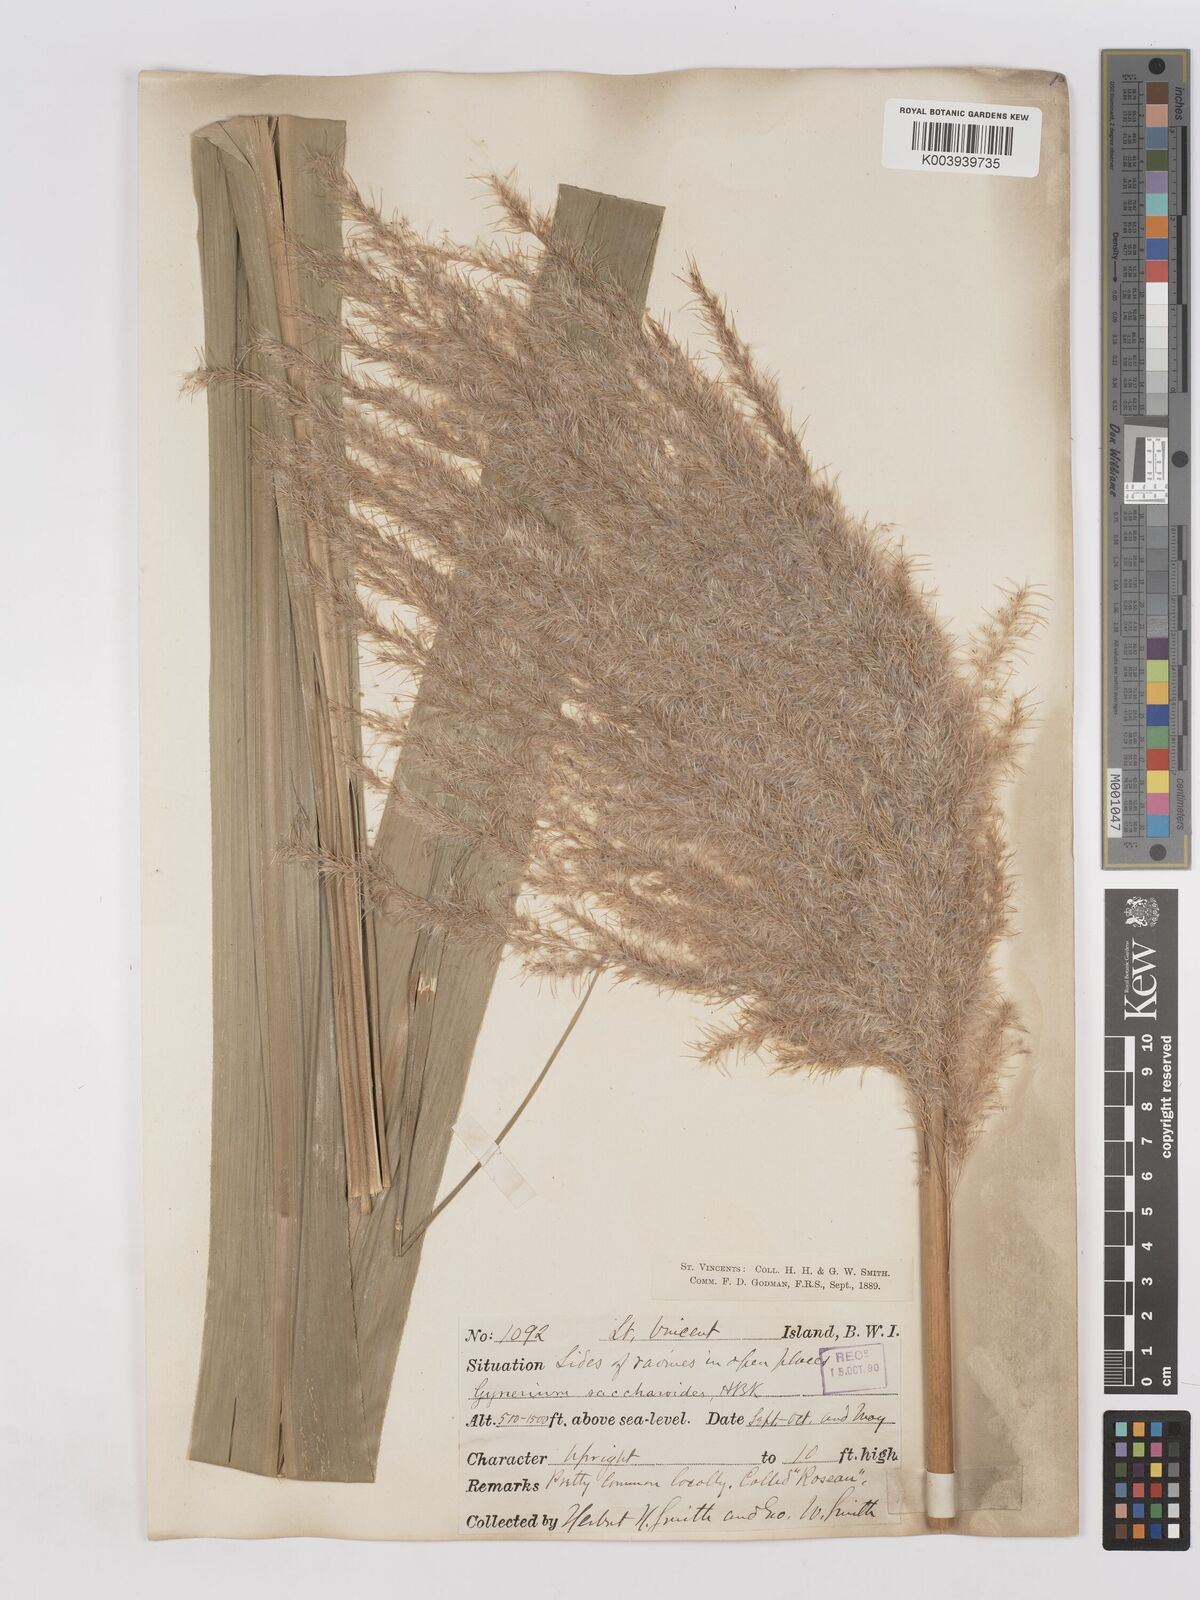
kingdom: Plantae
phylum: Tracheophyta
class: Liliopsida
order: Poales
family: Poaceae
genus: Gynerium
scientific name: Gynerium sagittatum
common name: Wild cane
